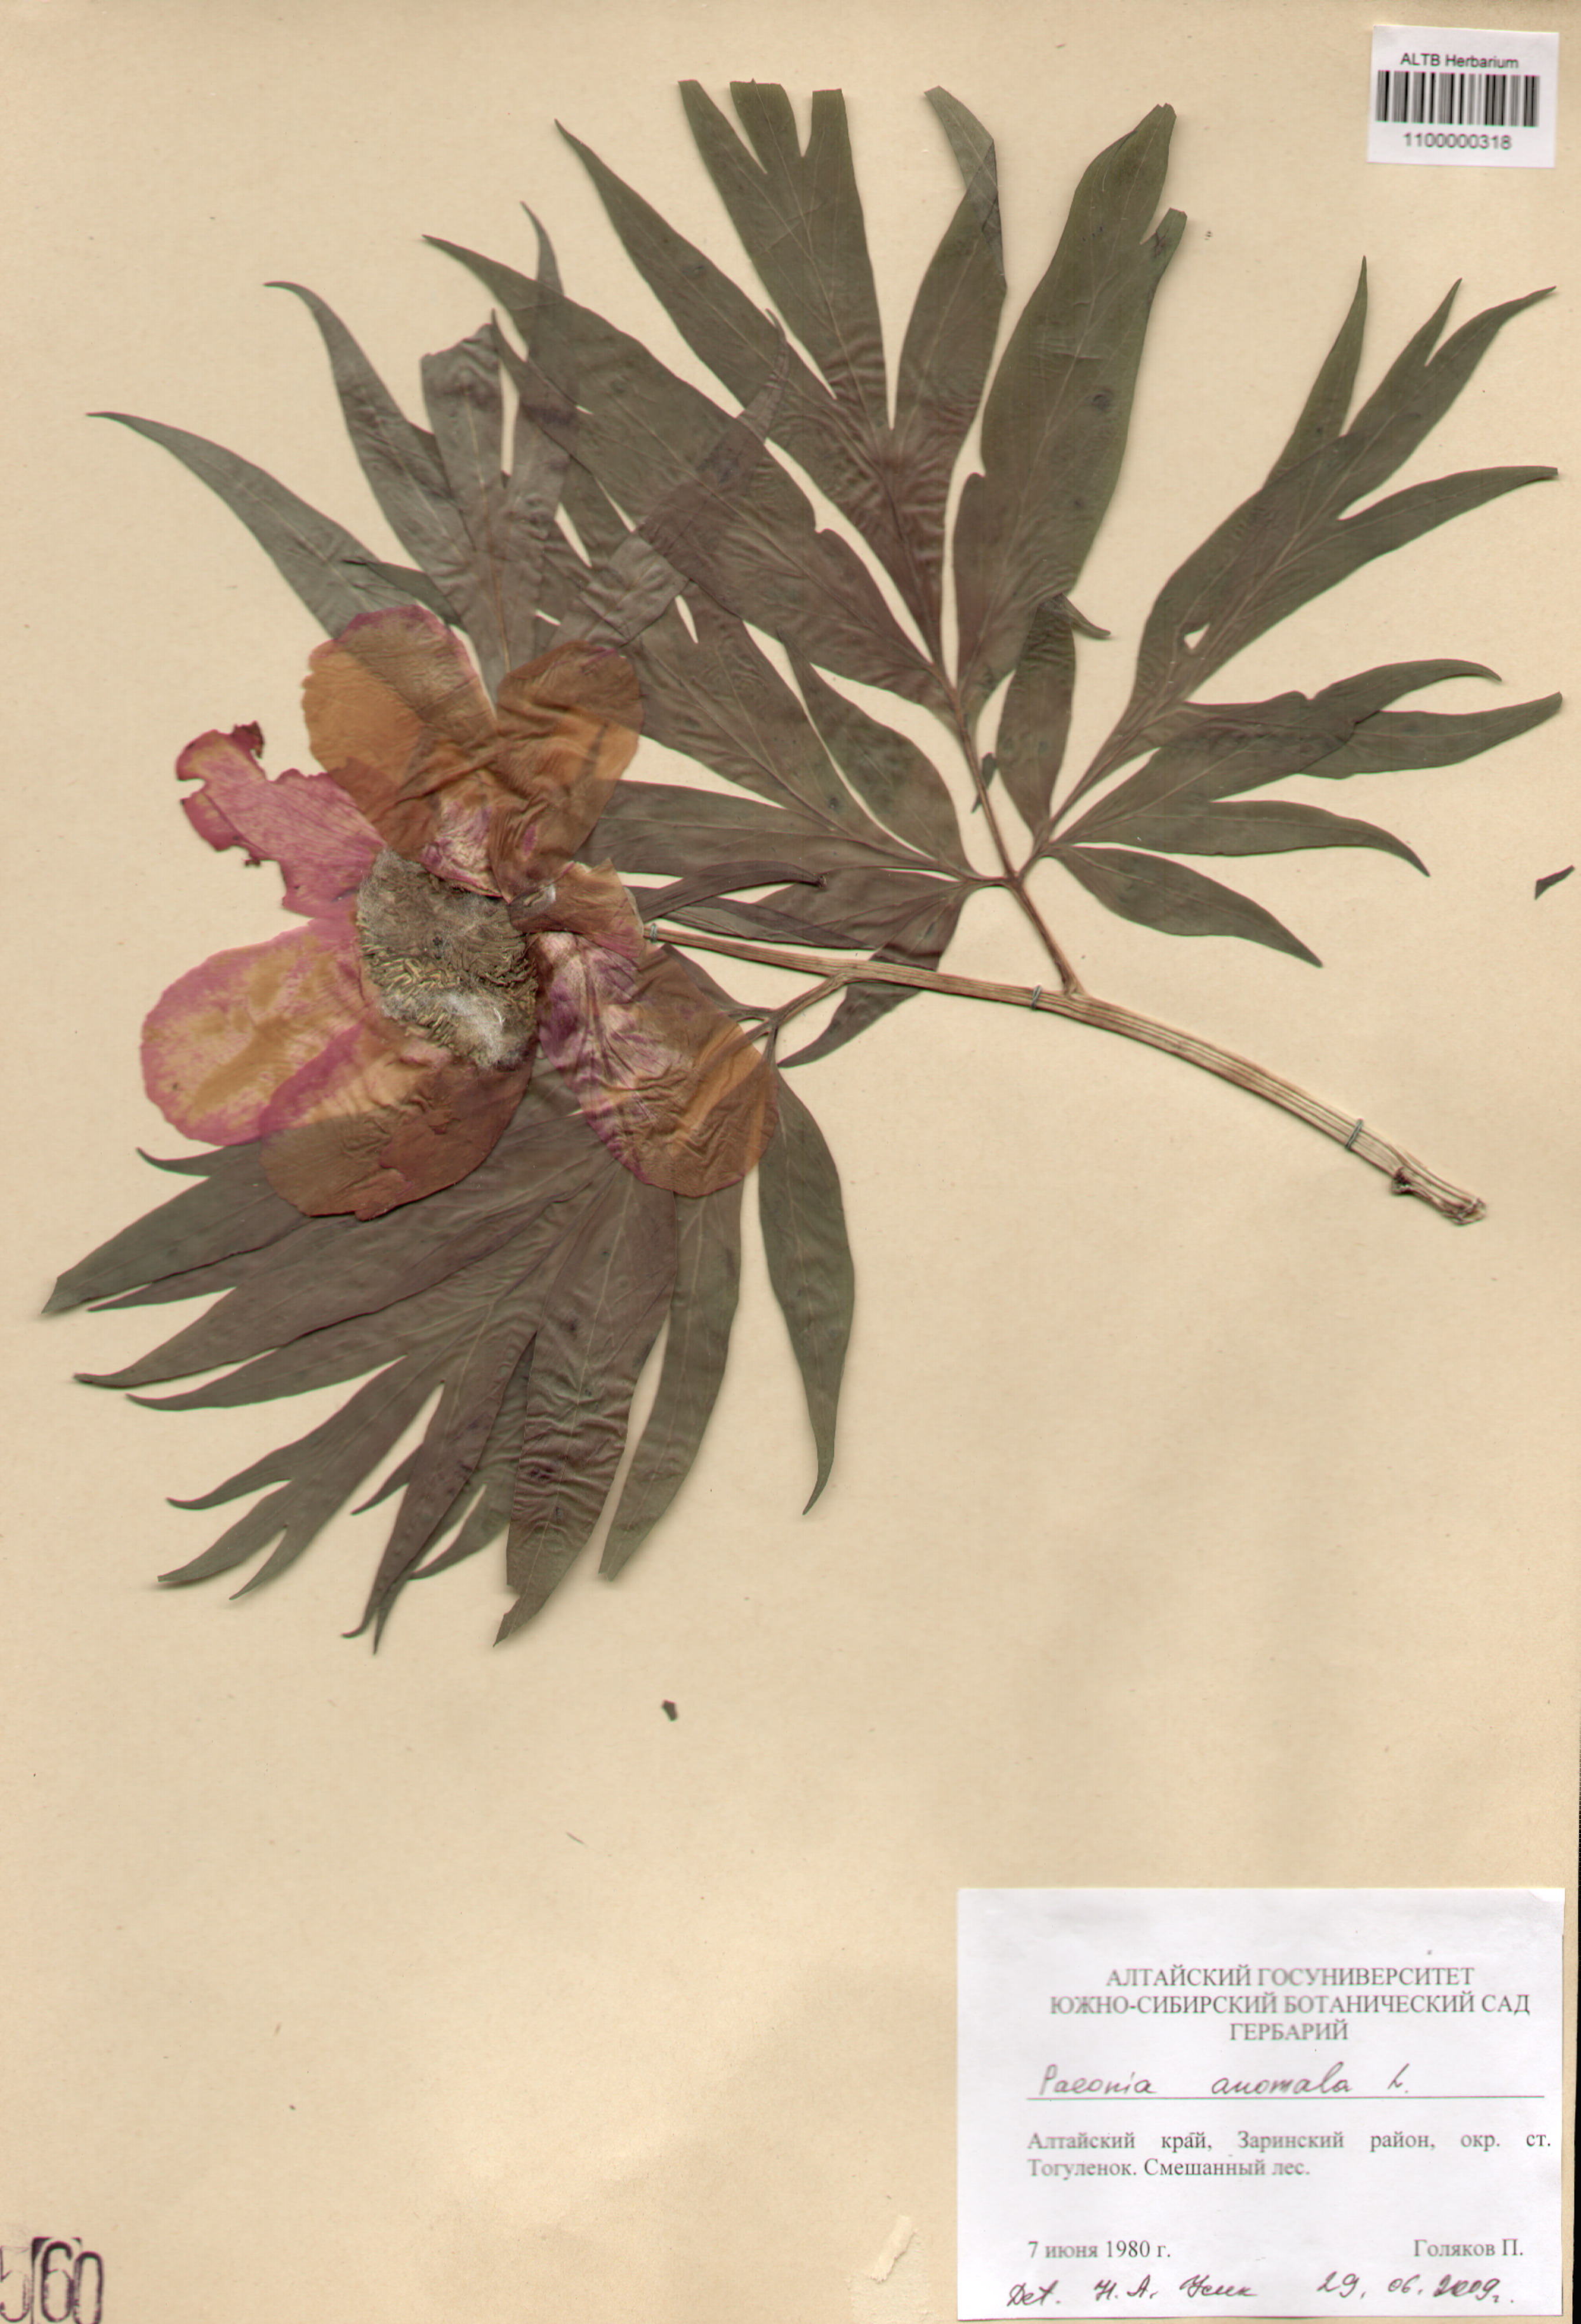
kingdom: Plantae
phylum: Tracheophyta
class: Magnoliopsida
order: Saxifragales
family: Paeoniaceae
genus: Paeonia
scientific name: Paeonia anomala
